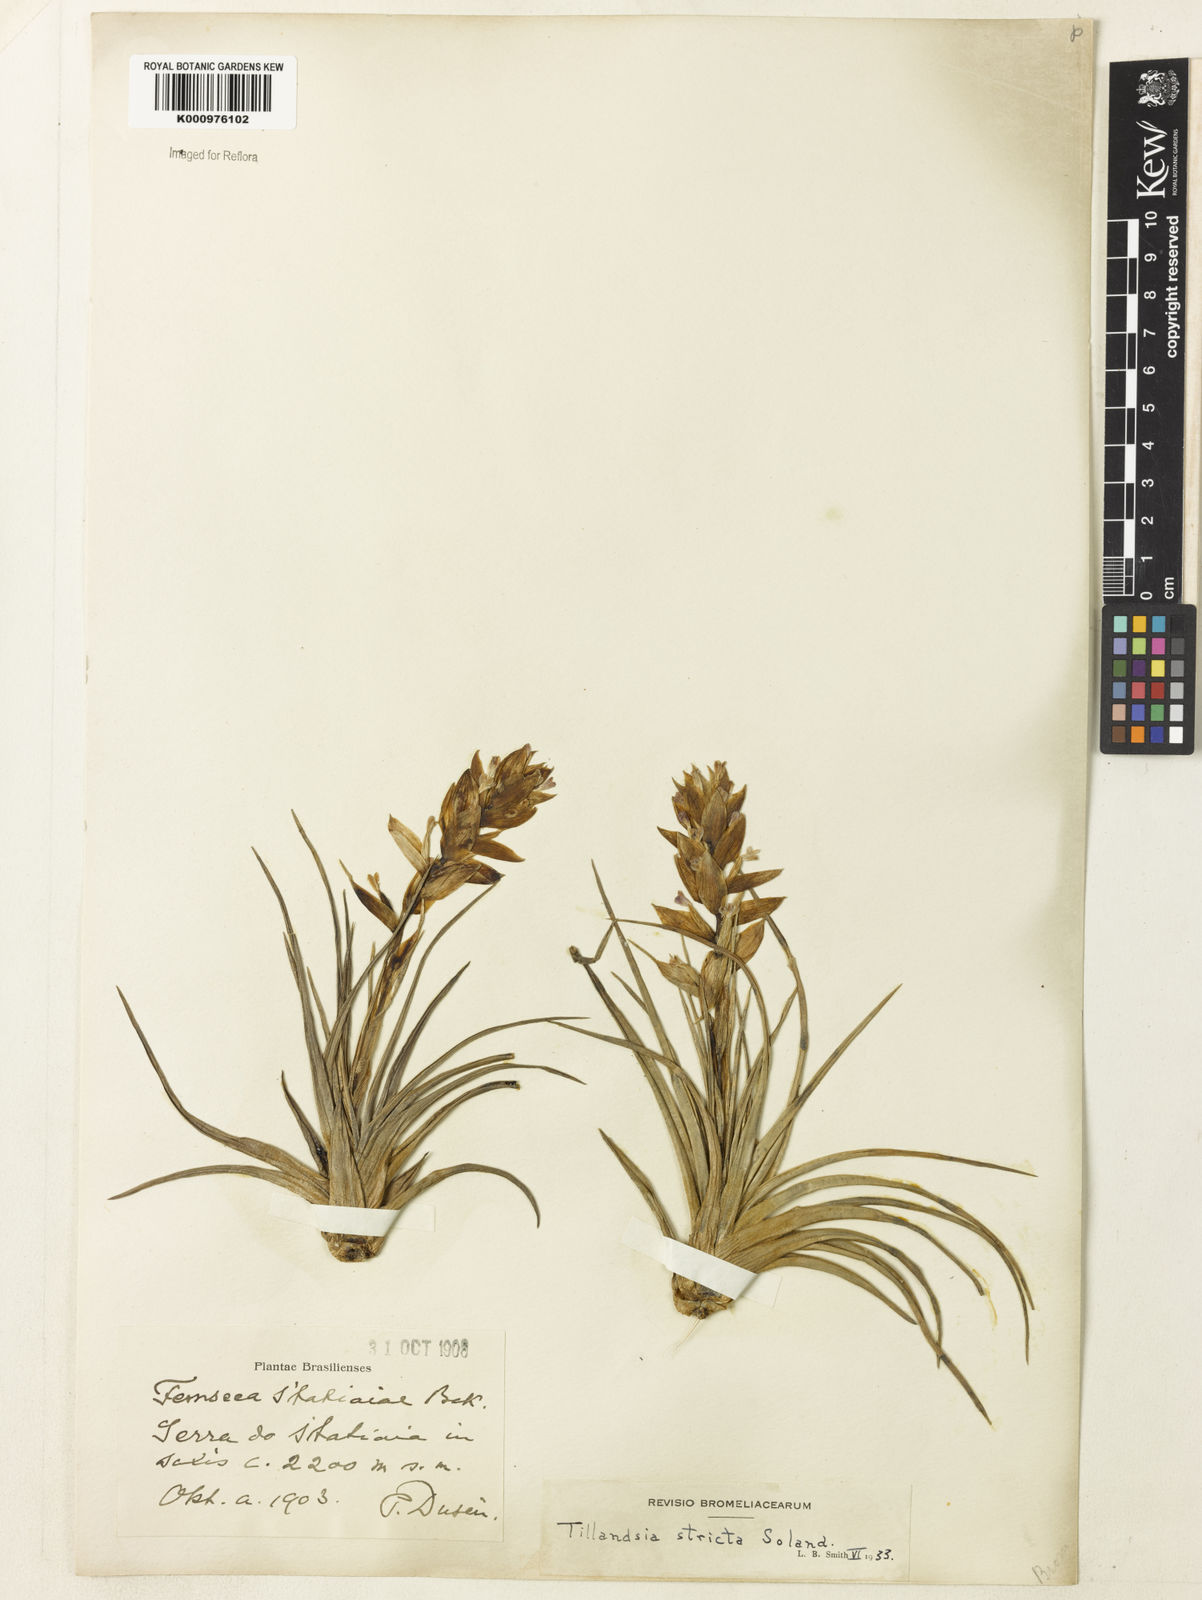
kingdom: Plantae
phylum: Tracheophyta
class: Liliopsida
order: Poales
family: Bromeliaceae
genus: Tillandsia
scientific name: Tillandsia
